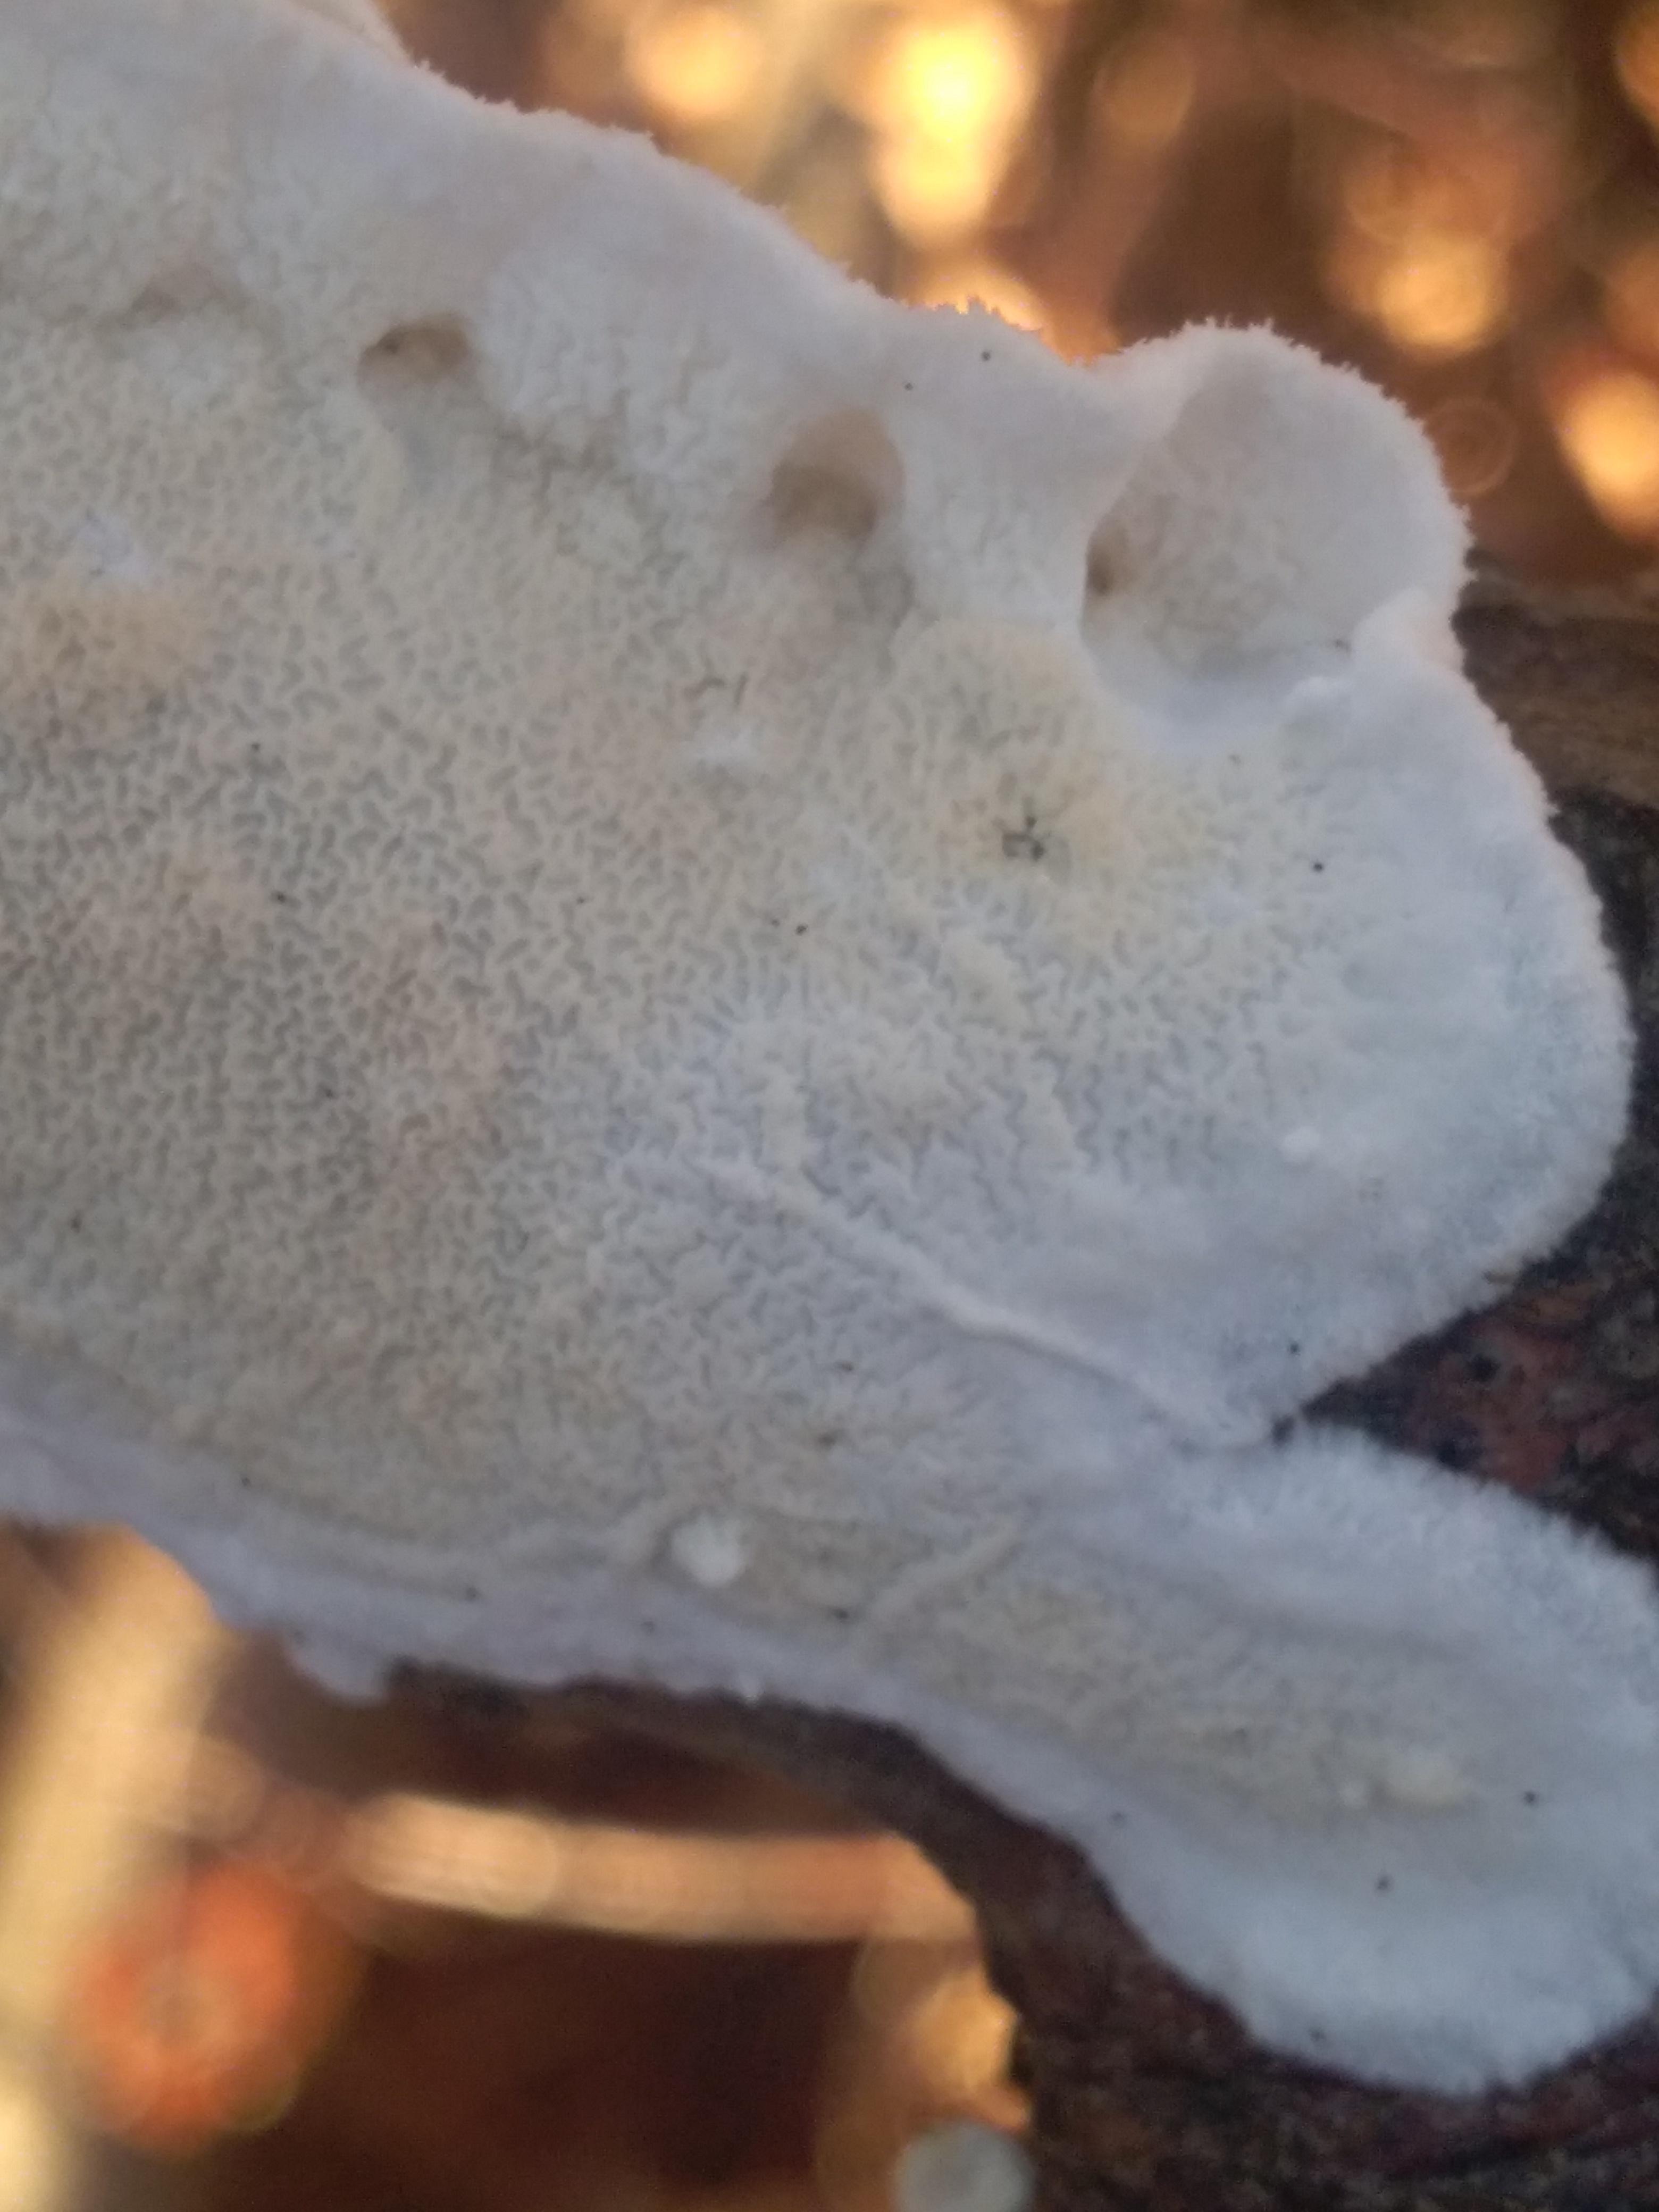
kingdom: Fungi
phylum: Basidiomycota
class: Agaricomycetes
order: Polyporales
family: Irpicaceae
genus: Byssomerulius
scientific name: Byssomerulius corium
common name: læder-åresvamp
